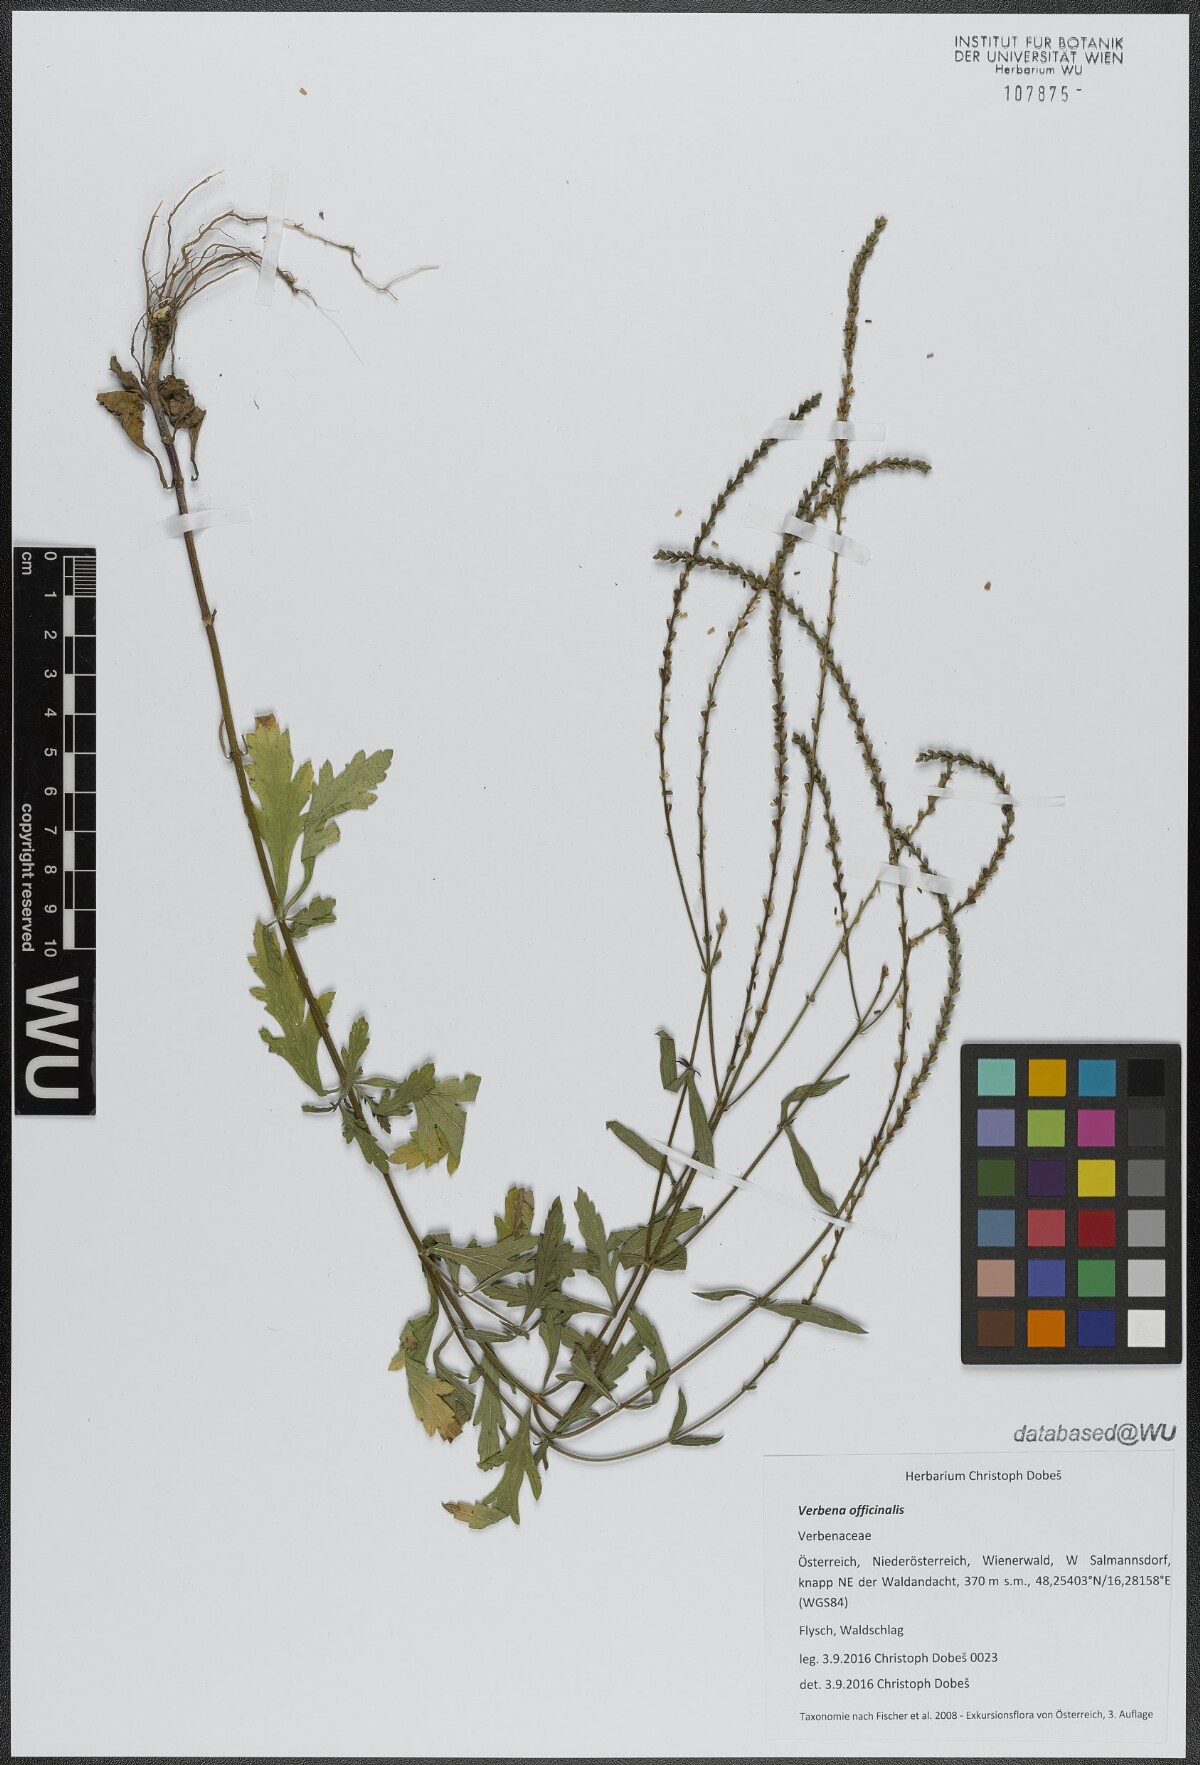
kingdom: Plantae
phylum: Tracheophyta
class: Magnoliopsida
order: Lamiales
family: Verbenaceae
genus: Verbena
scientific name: Verbena officinalis
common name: Vervain
